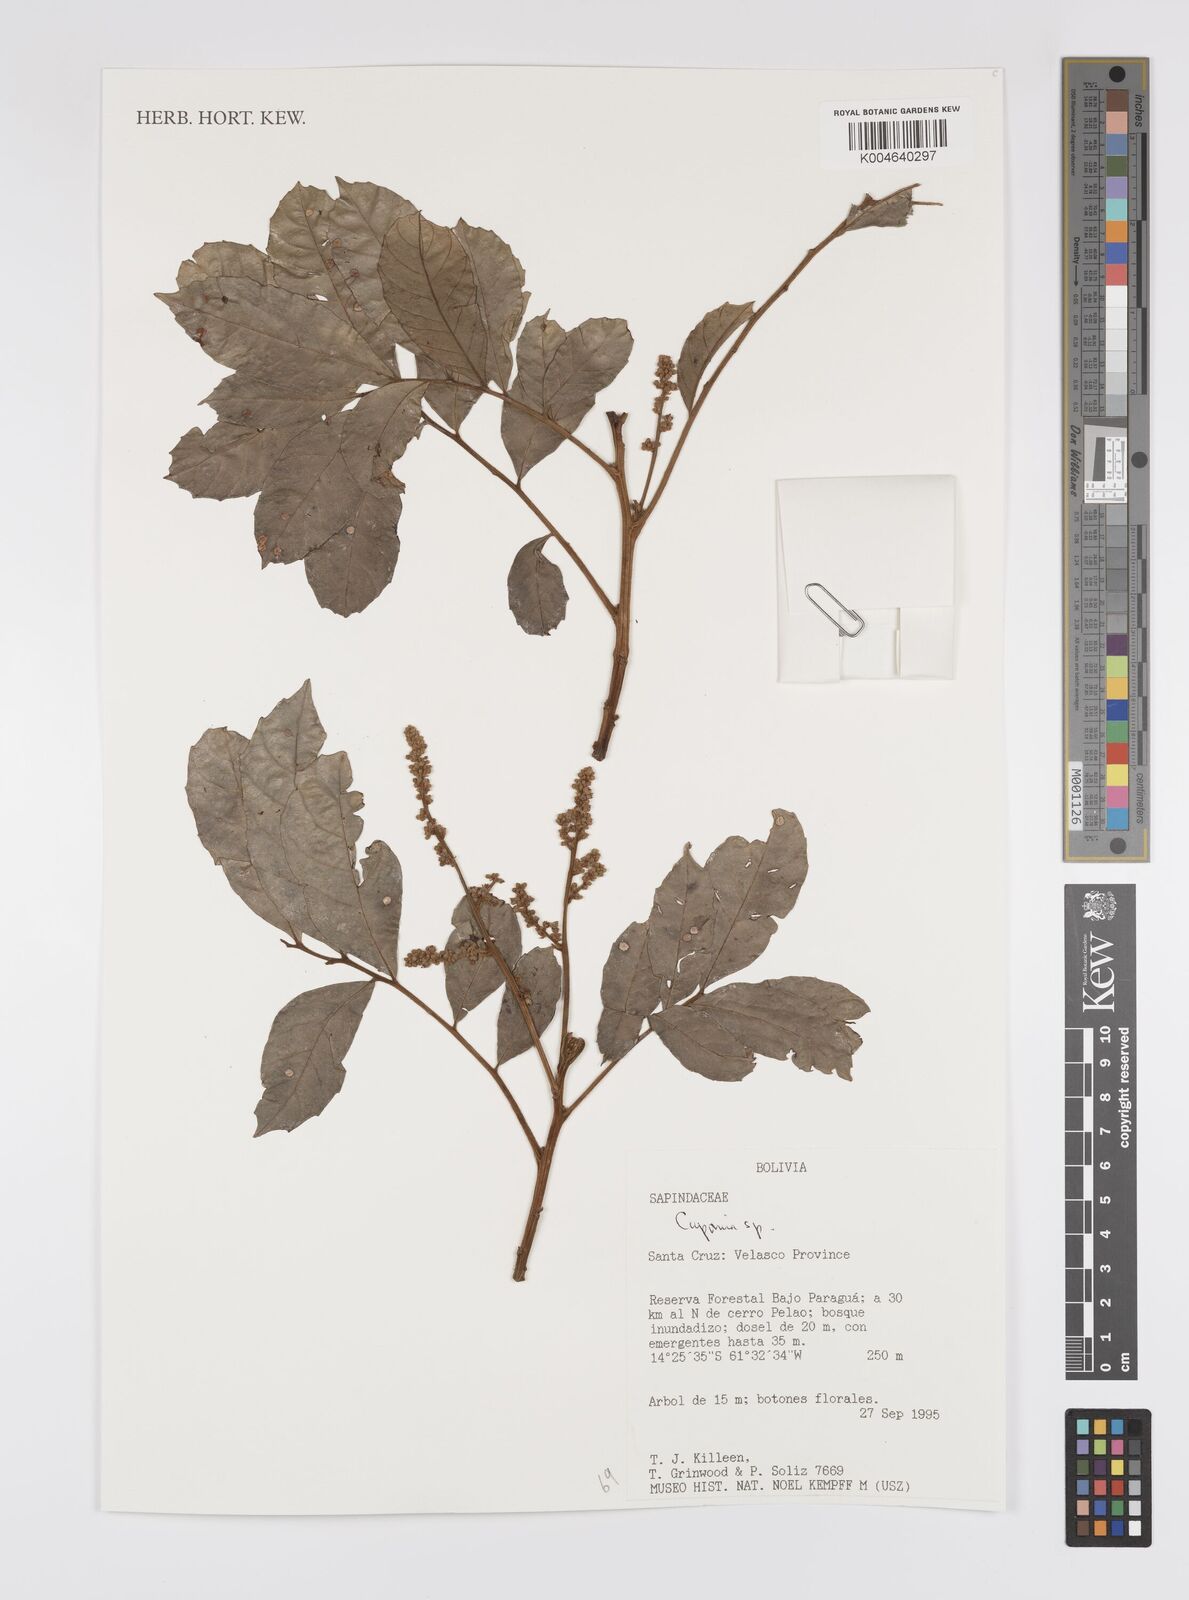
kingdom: Plantae
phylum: Tracheophyta
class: Magnoliopsida
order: Sapindales
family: Sapindaceae
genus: Cupania
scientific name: Cupania
